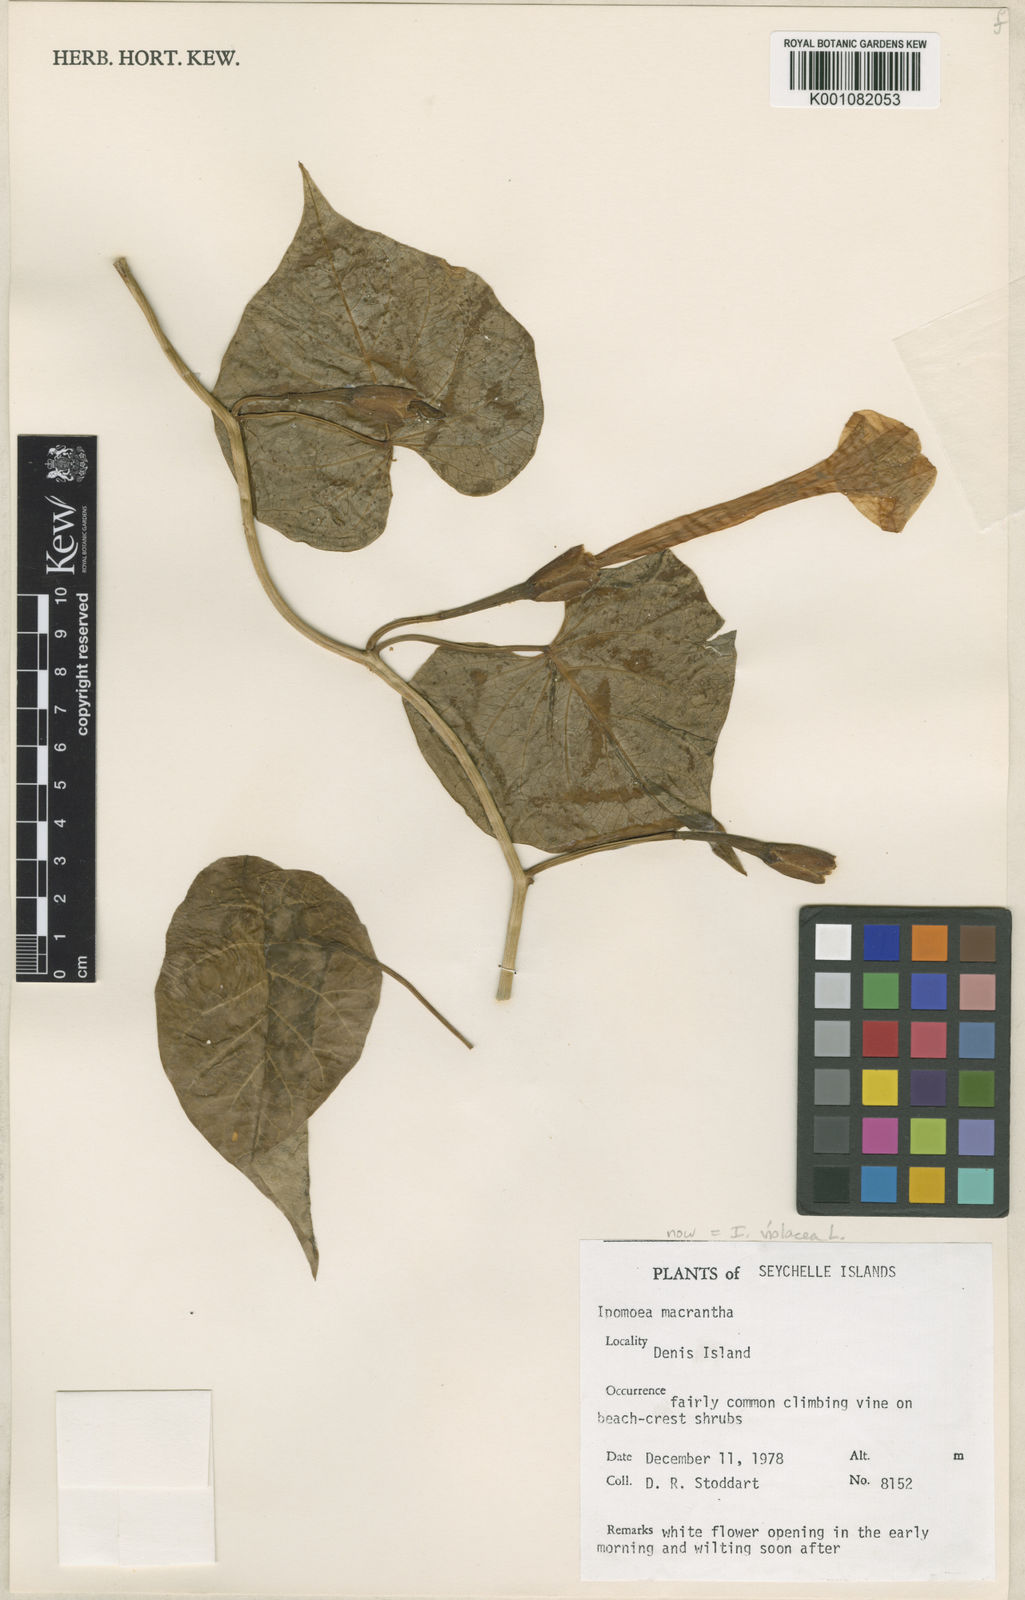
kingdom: Plantae
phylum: Tracheophyta
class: Magnoliopsida
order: Solanales
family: Convolvulaceae
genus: Ipomoea
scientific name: Ipomoea violacea
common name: Beach moonflower
